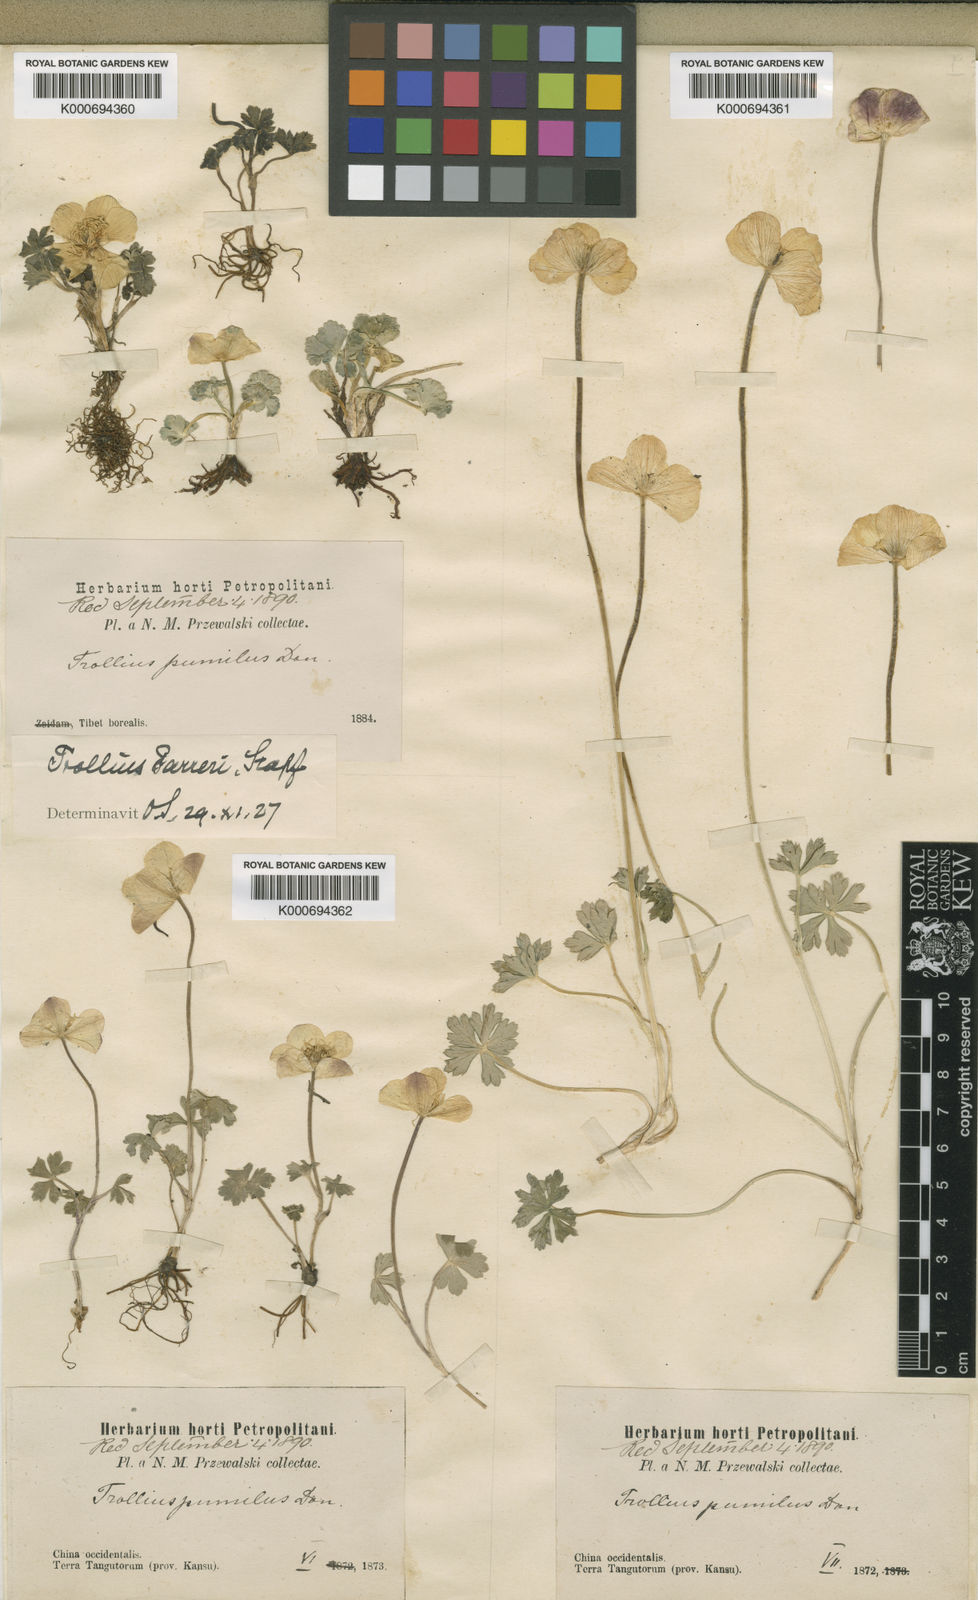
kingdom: Plantae
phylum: Tracheophyta
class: Magnoliopsida
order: Ranunculales
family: Ranunculaceae
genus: Trollius
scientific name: Trollius farreri
